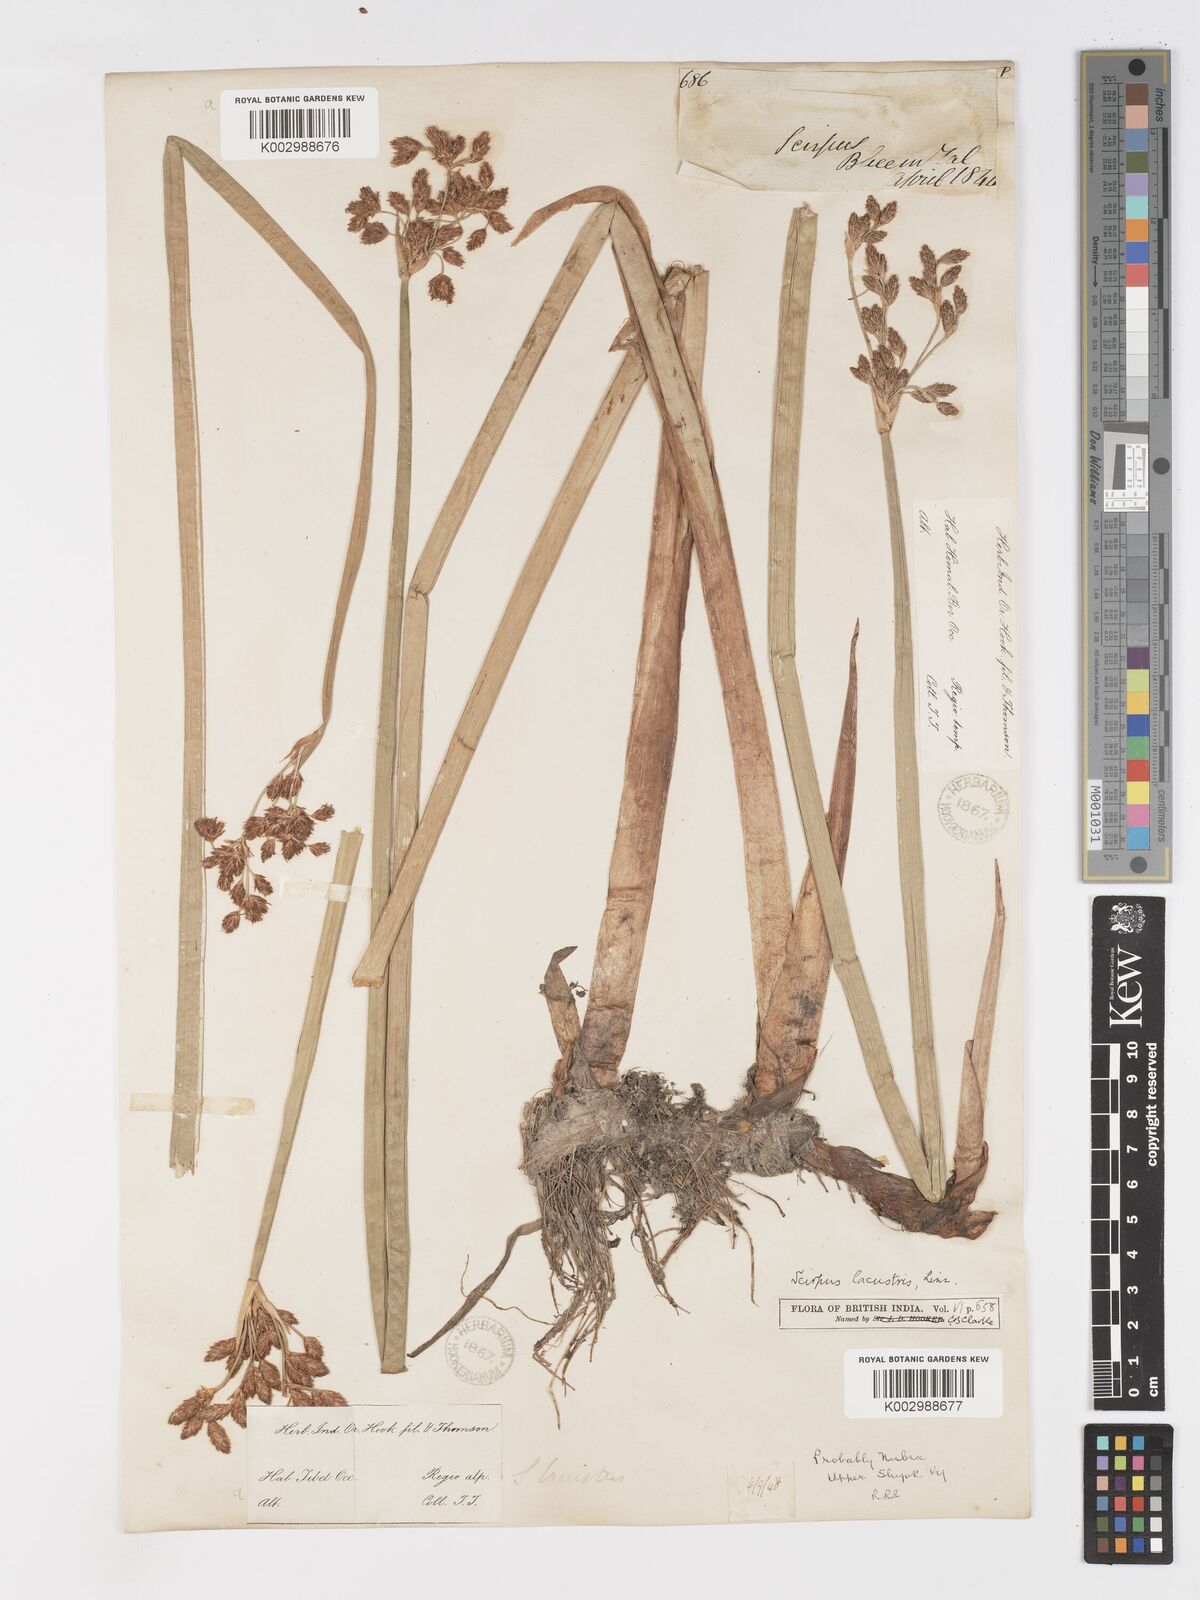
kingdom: Plantae
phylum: Tracheophyta
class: Liliopsida
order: Poales
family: Cyperaceae
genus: Schoenoplectus
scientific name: Schoenoplectus lacustris
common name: Common club-rush
